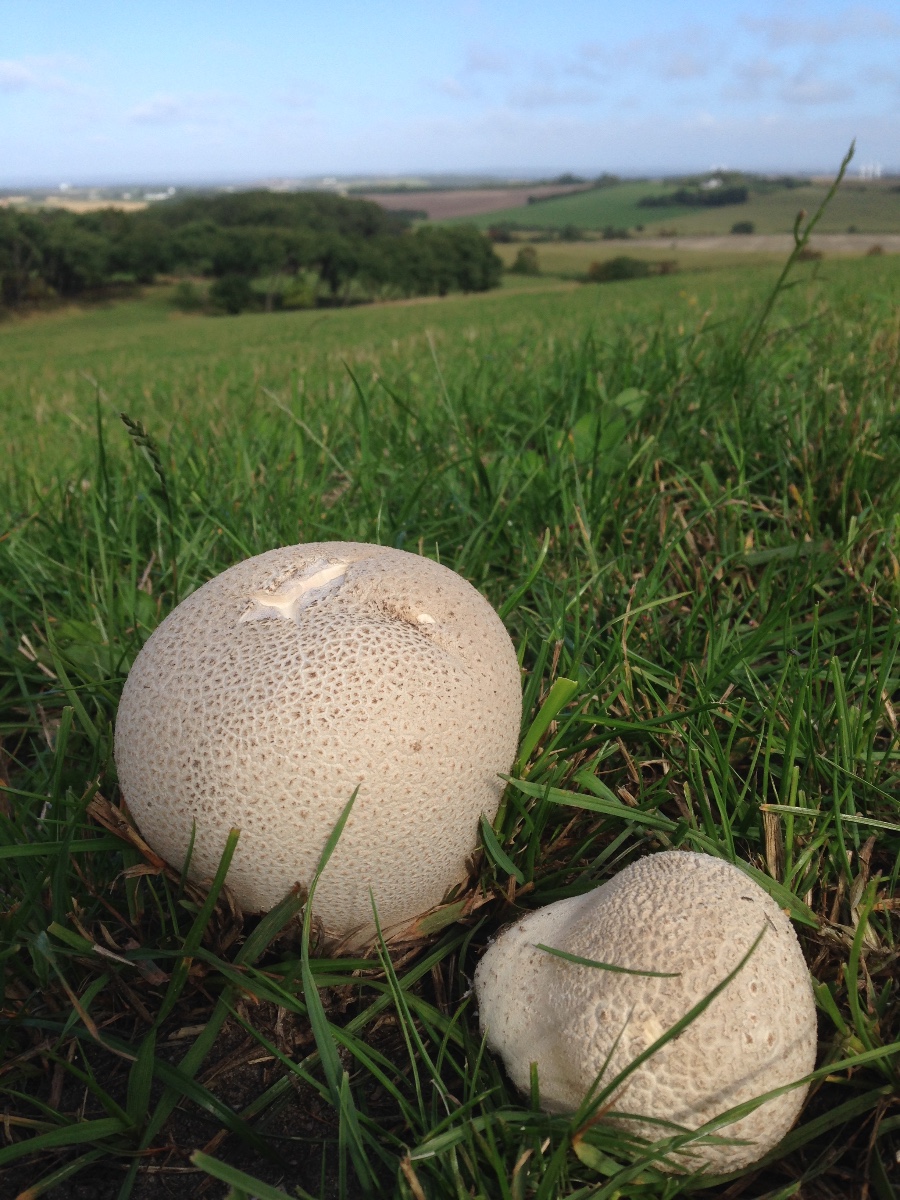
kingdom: Fungi
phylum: Basidiomycota
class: Agaricomycetes
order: Agaricales
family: Lycoperdaceae
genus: Bovistella
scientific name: Bovistella utriformis
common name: skællet støvbold
